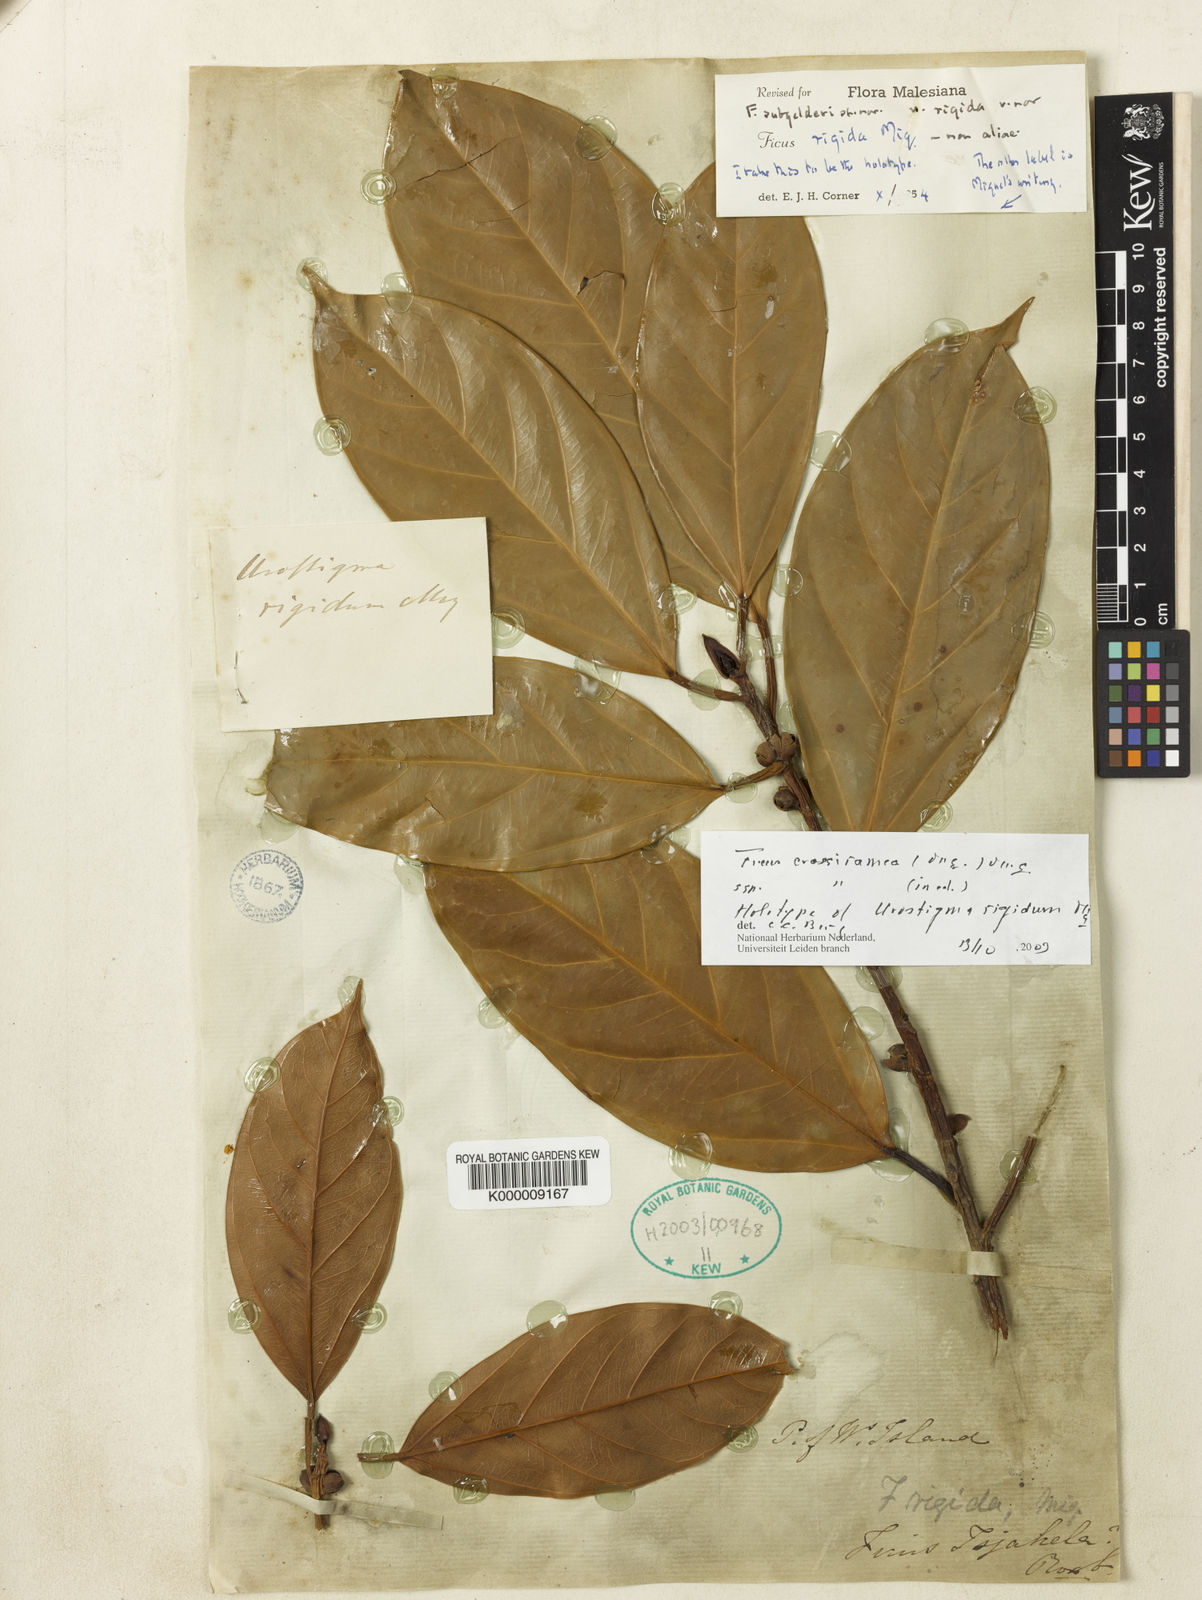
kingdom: Plantae
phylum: Tracheophyta
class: Magnoliopsida
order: Rosales
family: Moraceae
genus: Ficus
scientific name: Ficus crassiramea
